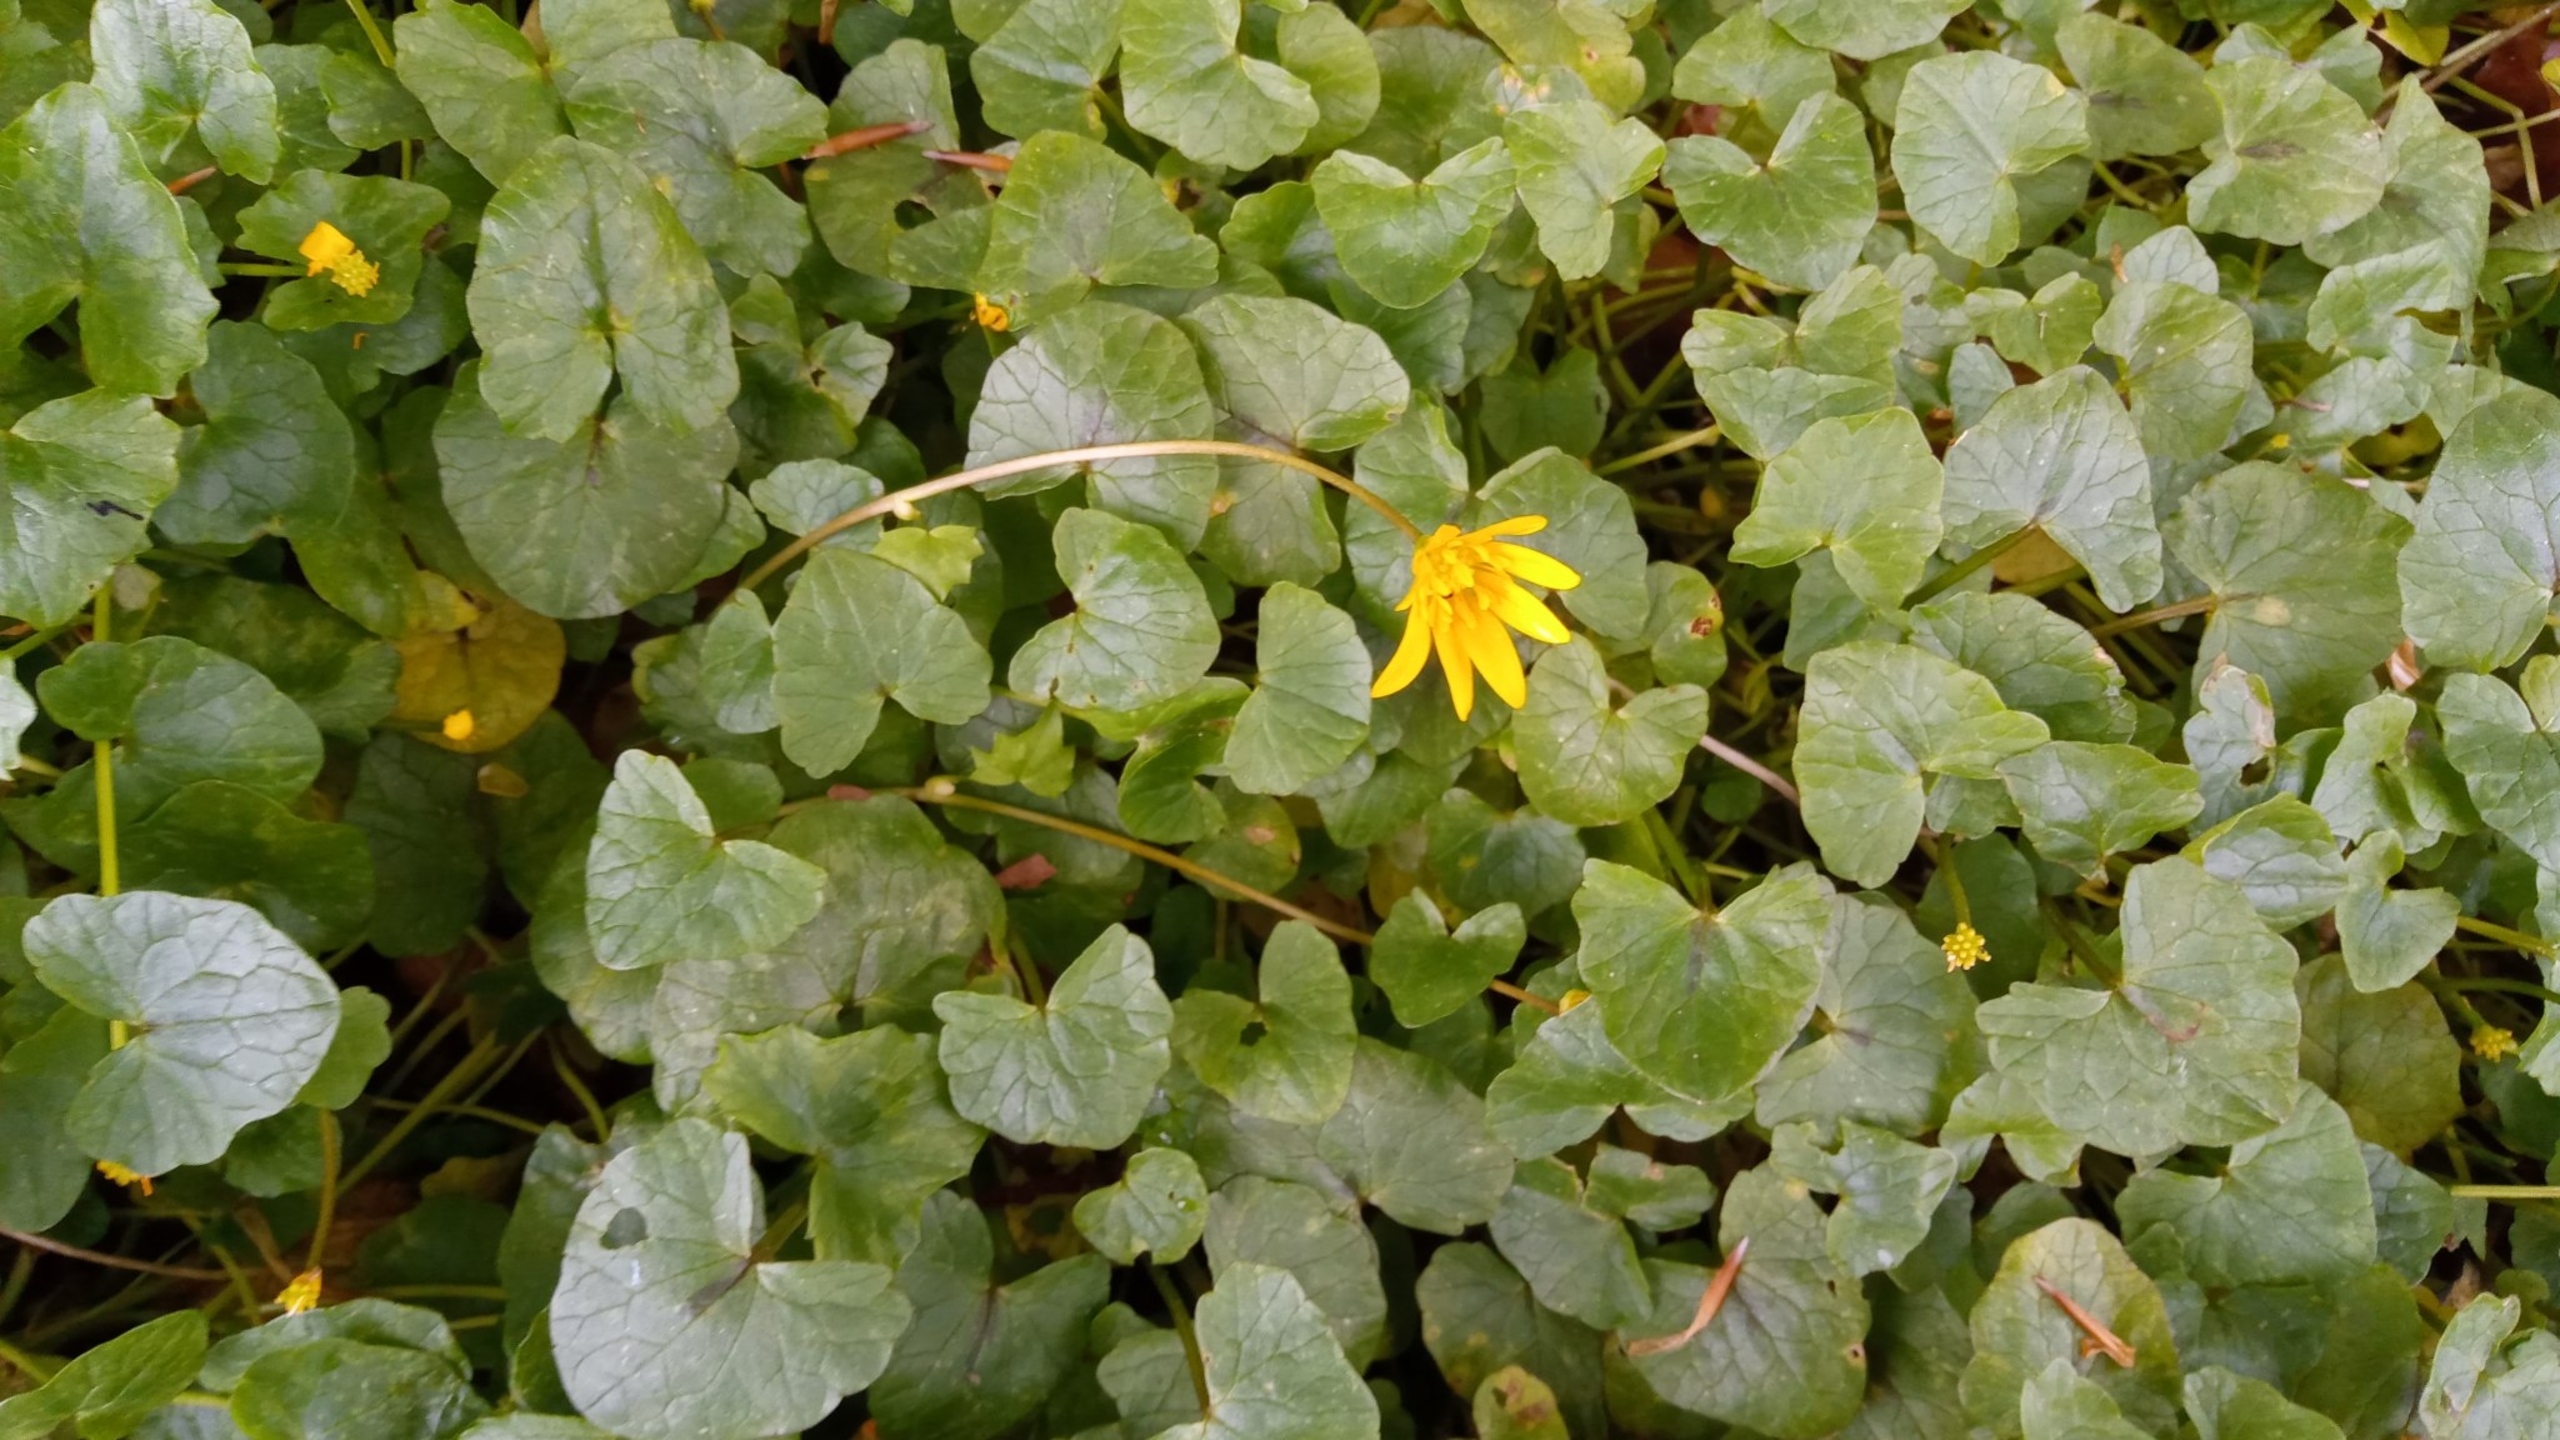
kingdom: Plantae
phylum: Tracheophyta
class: Magnoliopsida
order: Ranunculales
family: Ranunculaceae
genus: Ficaria
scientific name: Ficaria verna
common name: Vorterod
